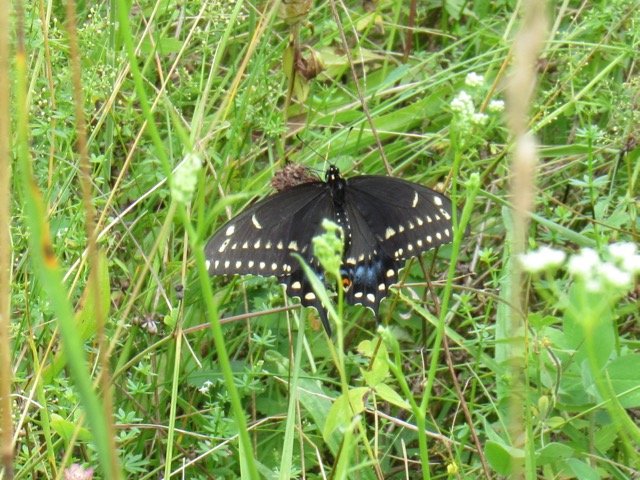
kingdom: Animalia
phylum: Arthropoda
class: Insecta
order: Lepidoptera
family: Papilionidae
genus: Papilio
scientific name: Papilio polyxenes
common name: Black Swallowtail
